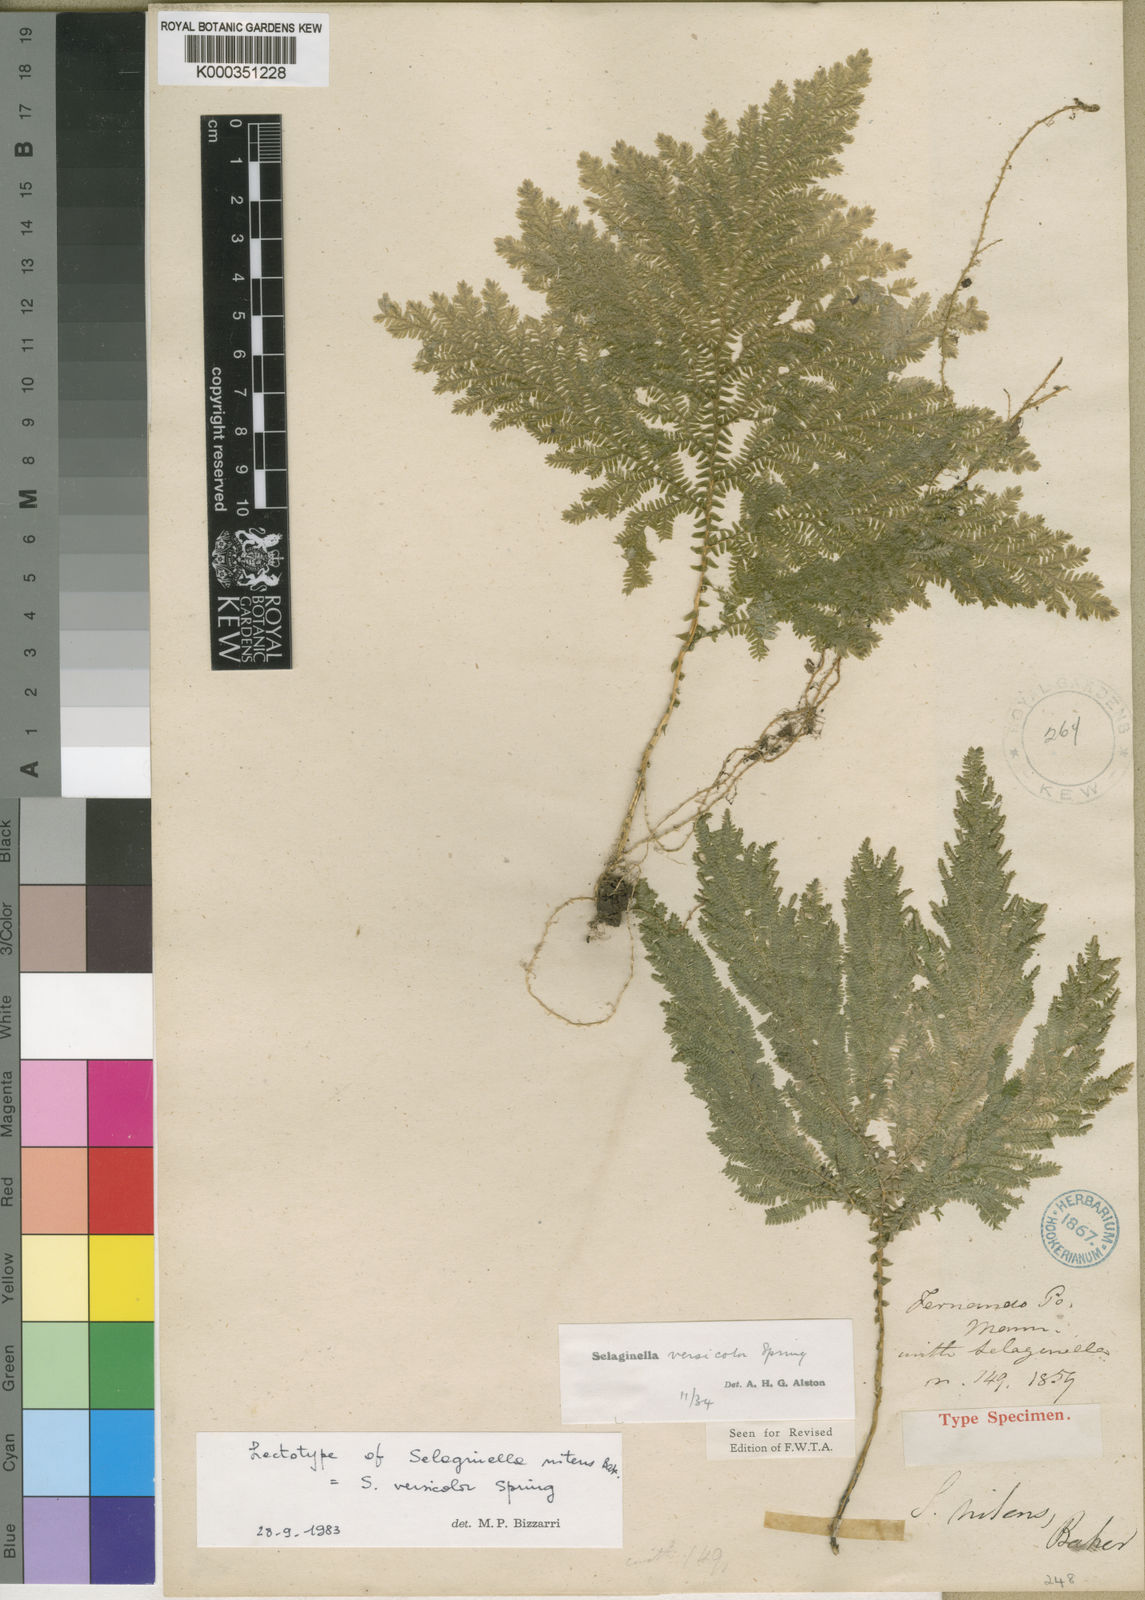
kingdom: Plantae
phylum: Tracheophyta
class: Lycopodiopsida
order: Selaginellales
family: Selaginellaceae
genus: Selaginella
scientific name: Selaginella versicolor
